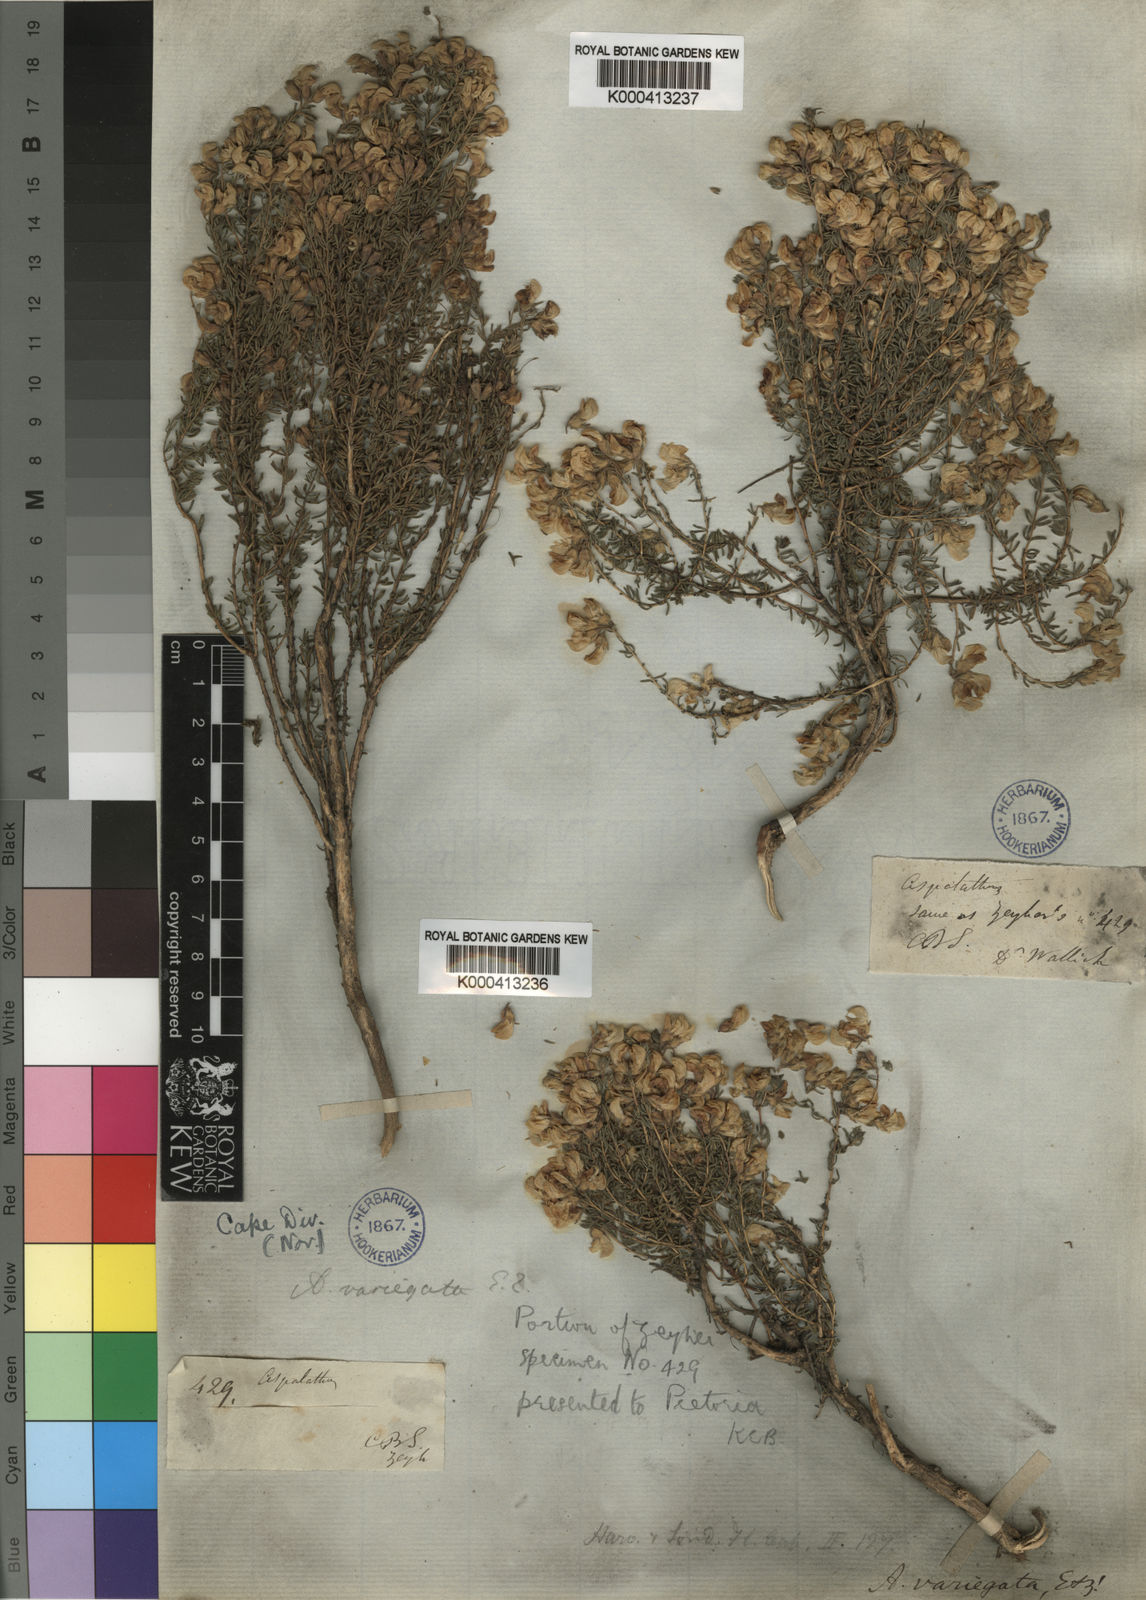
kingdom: Plantae
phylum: Tracheophyta
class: Magnoliopsida
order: Fabales
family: Fabaceae
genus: Aspalathus
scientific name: Aspalathus variegata
